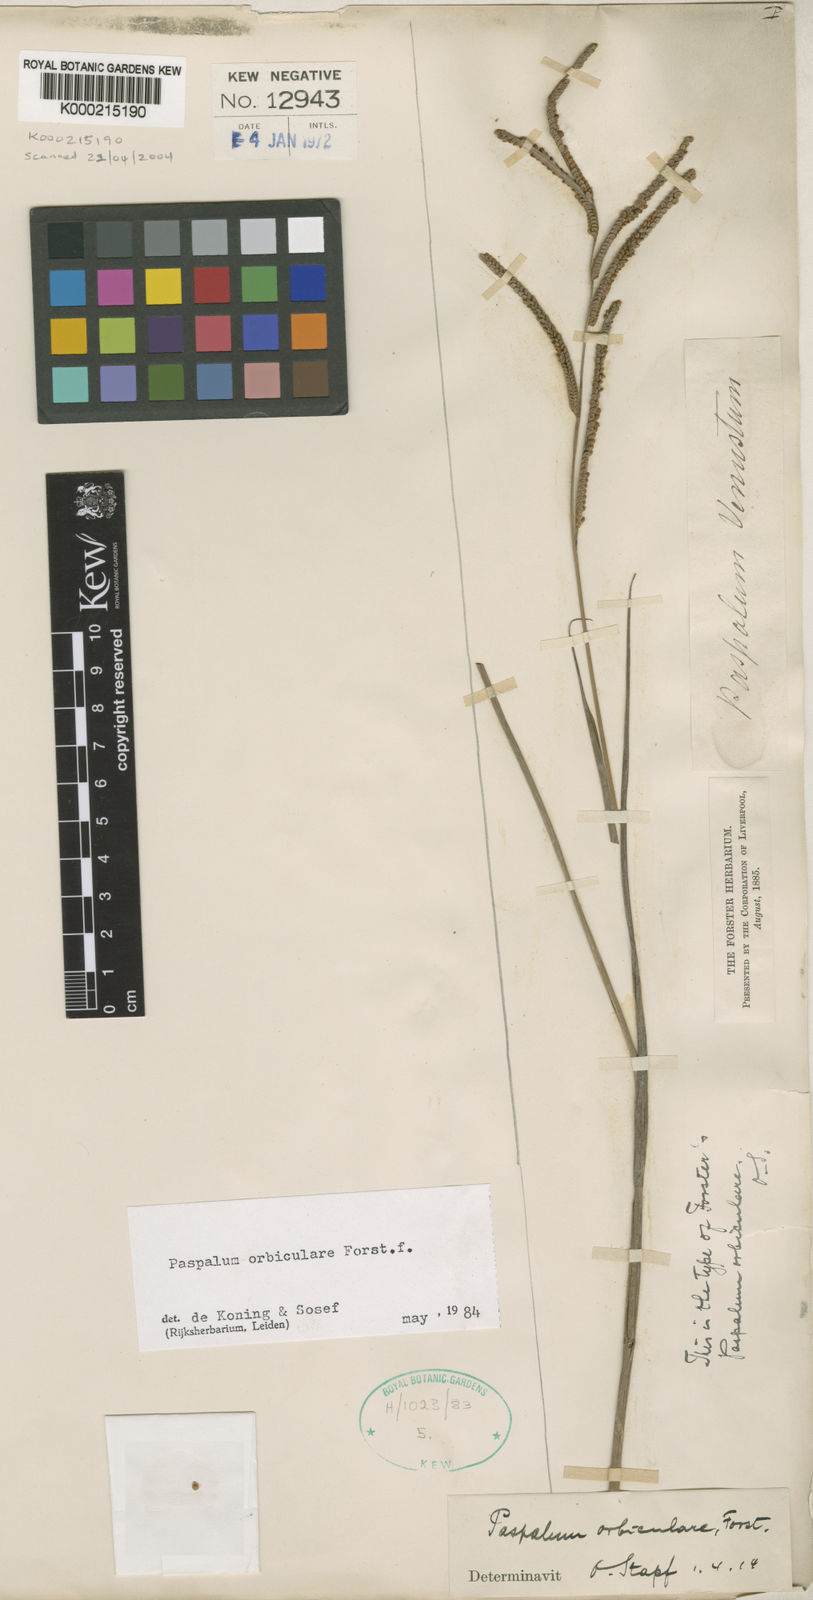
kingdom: Plantae
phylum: Tracheophyta
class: Liliopsida
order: Poales
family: Poaceae
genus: Paspalum
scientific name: Paspalum scrobiculatum
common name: Kodo millet
